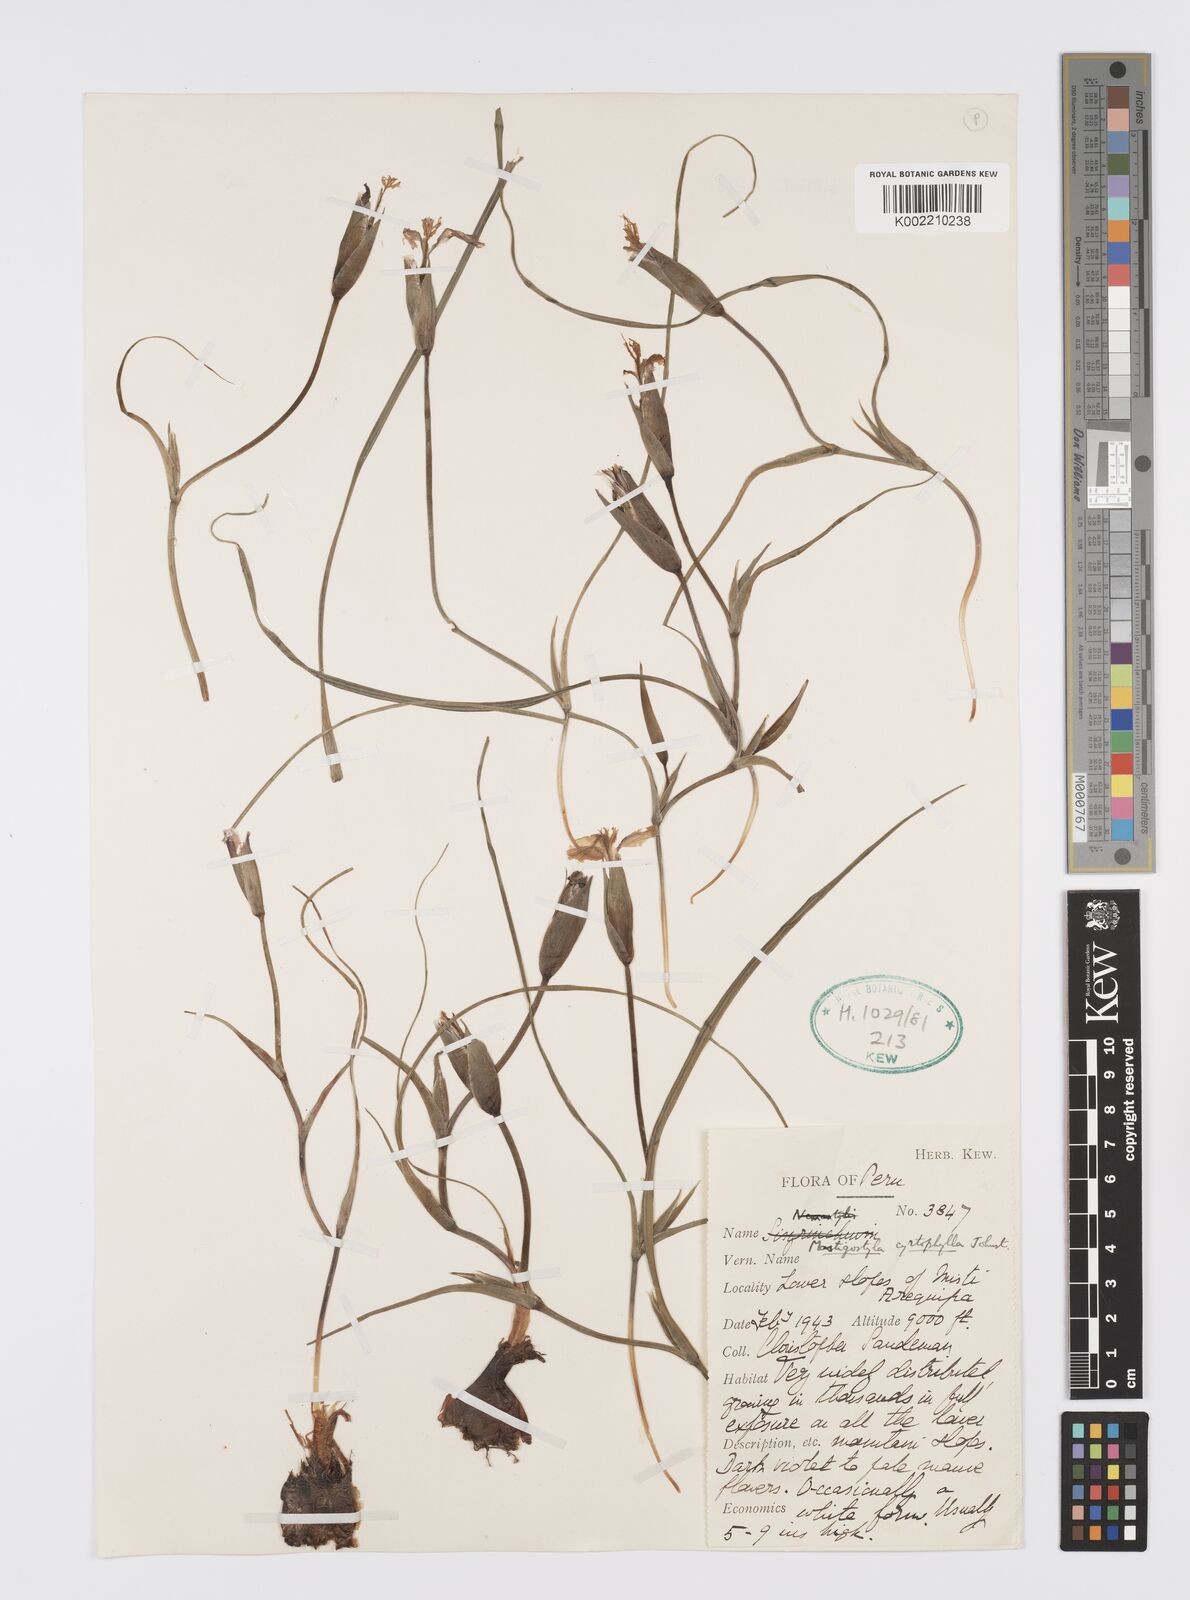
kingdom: Plantae
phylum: Tracheophyta
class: Liliopsida
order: Asparagales
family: Iridaceae
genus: Mastigostyla
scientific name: Mastigostyla cyrtophylla
